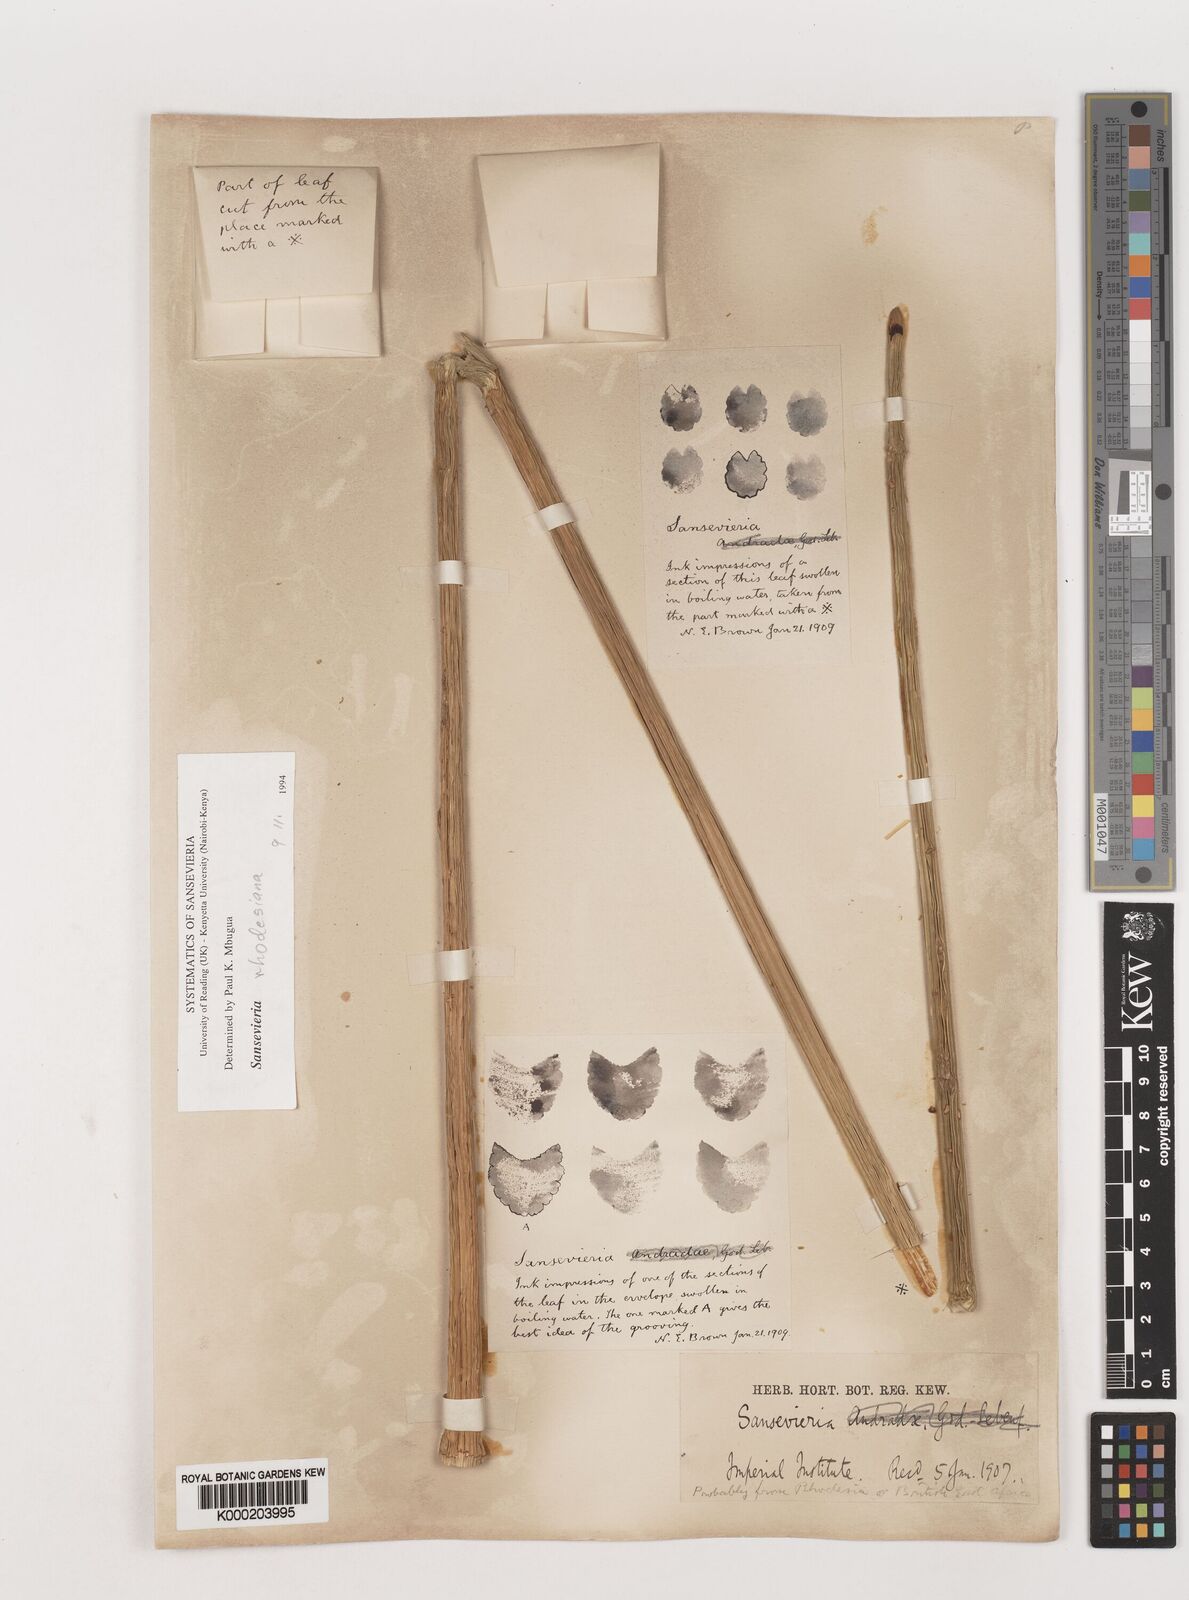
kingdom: Plantae
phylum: Tracheophyta
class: Liliopsida
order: Asparagales
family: Asparagaceae
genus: Dracaena
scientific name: Dracaena
